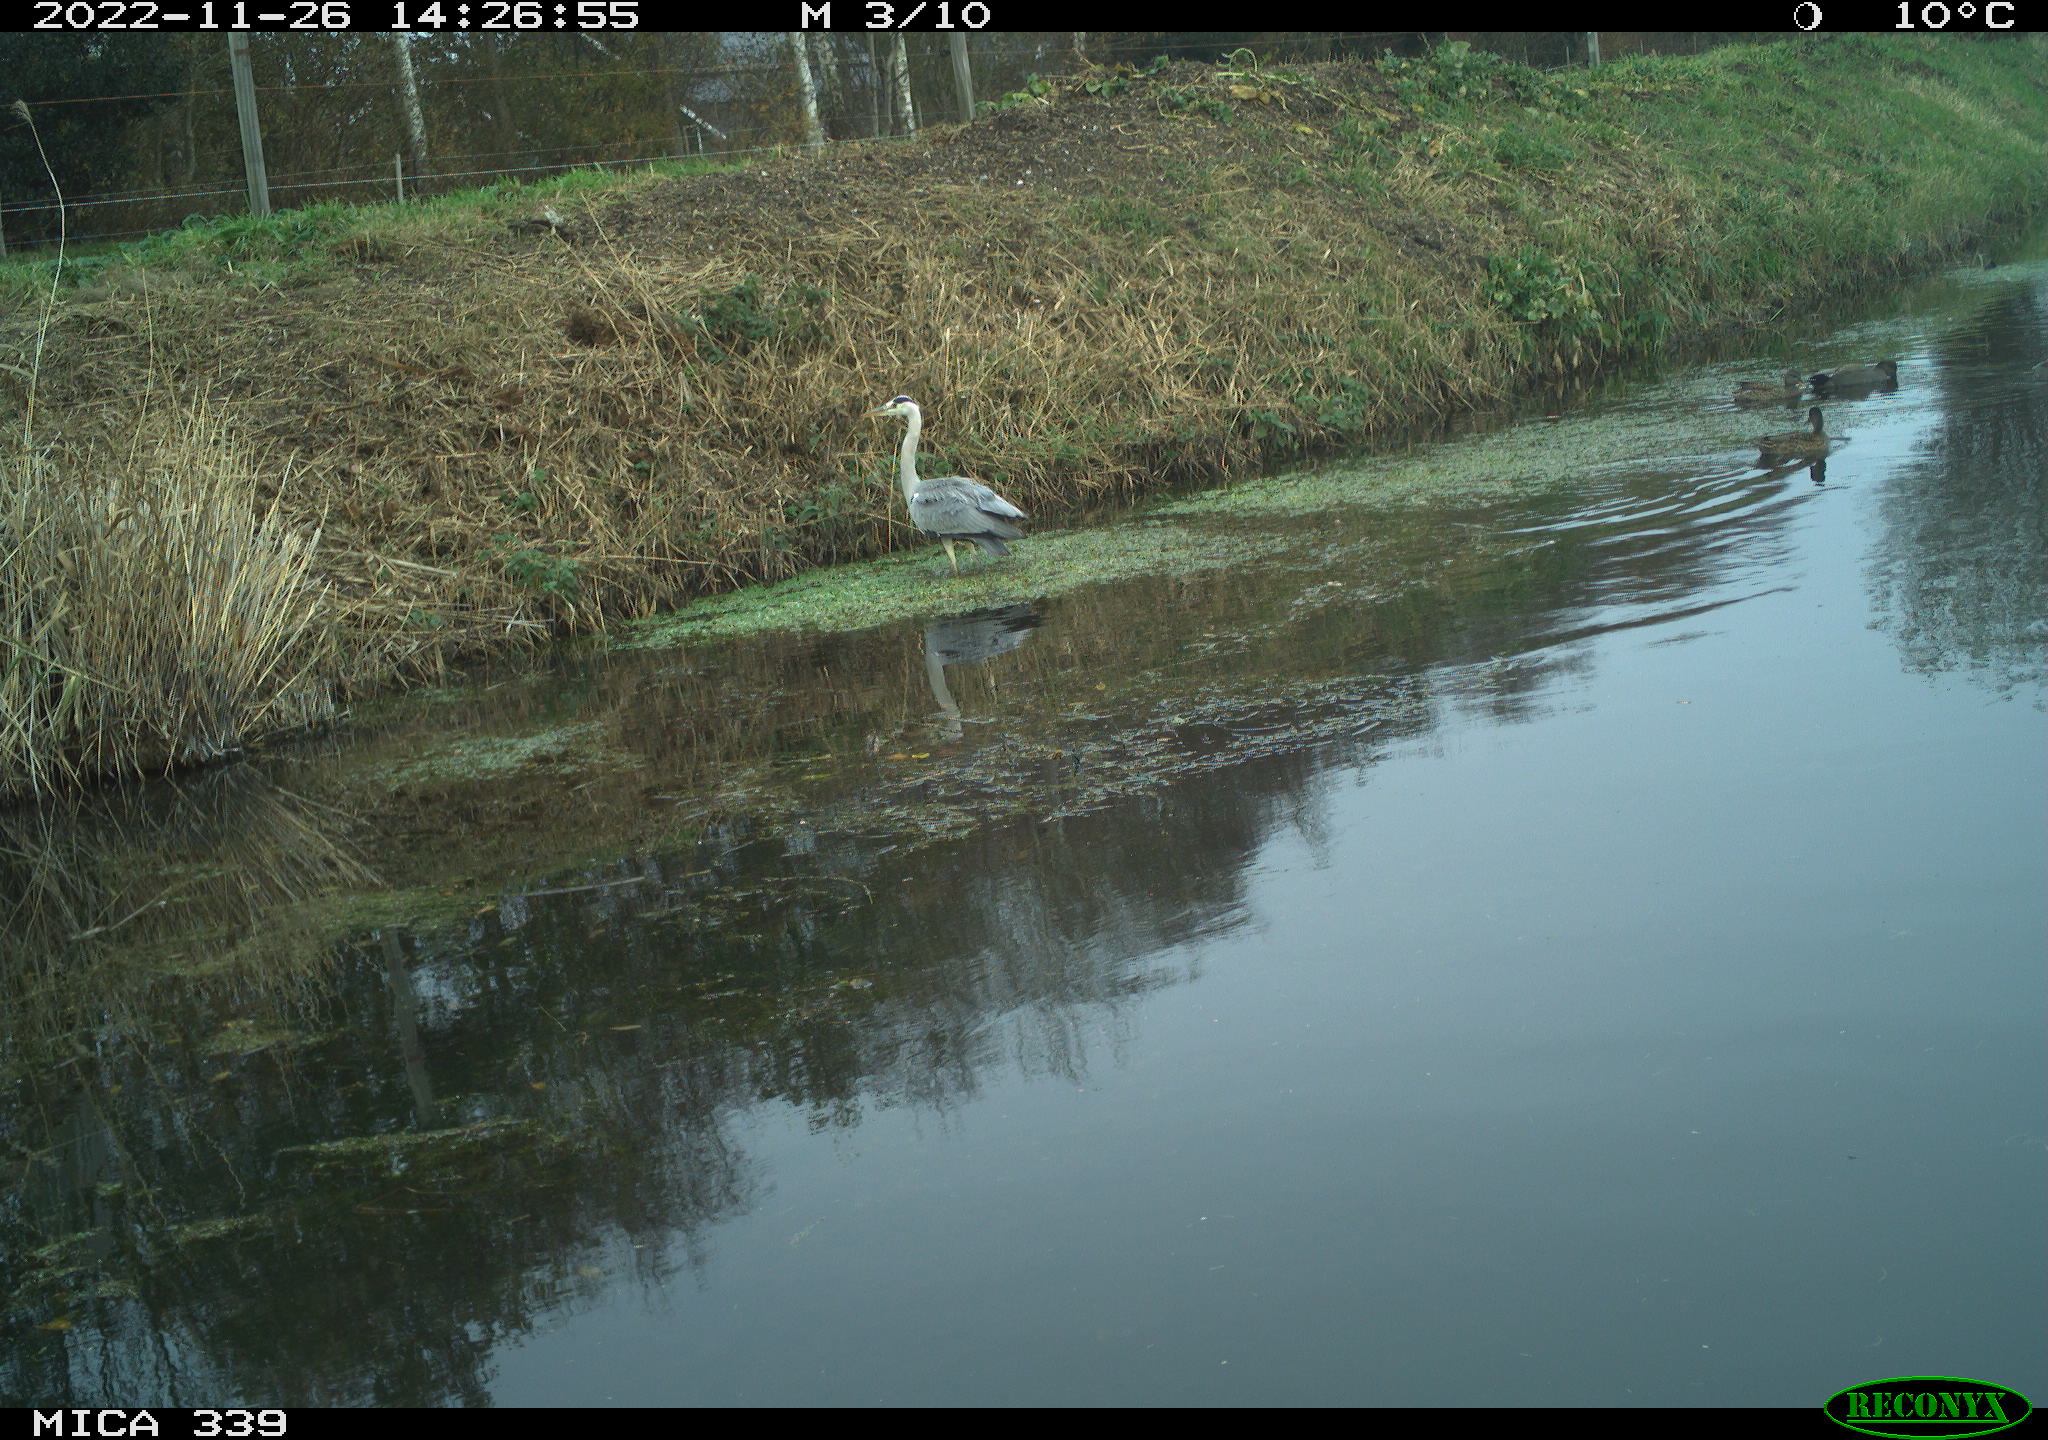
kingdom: Animalia
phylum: Chordata
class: Aves
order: Pelecaniformes
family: Ardeidae
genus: Ardea
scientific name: Ardea cinerea
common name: Grey heron
